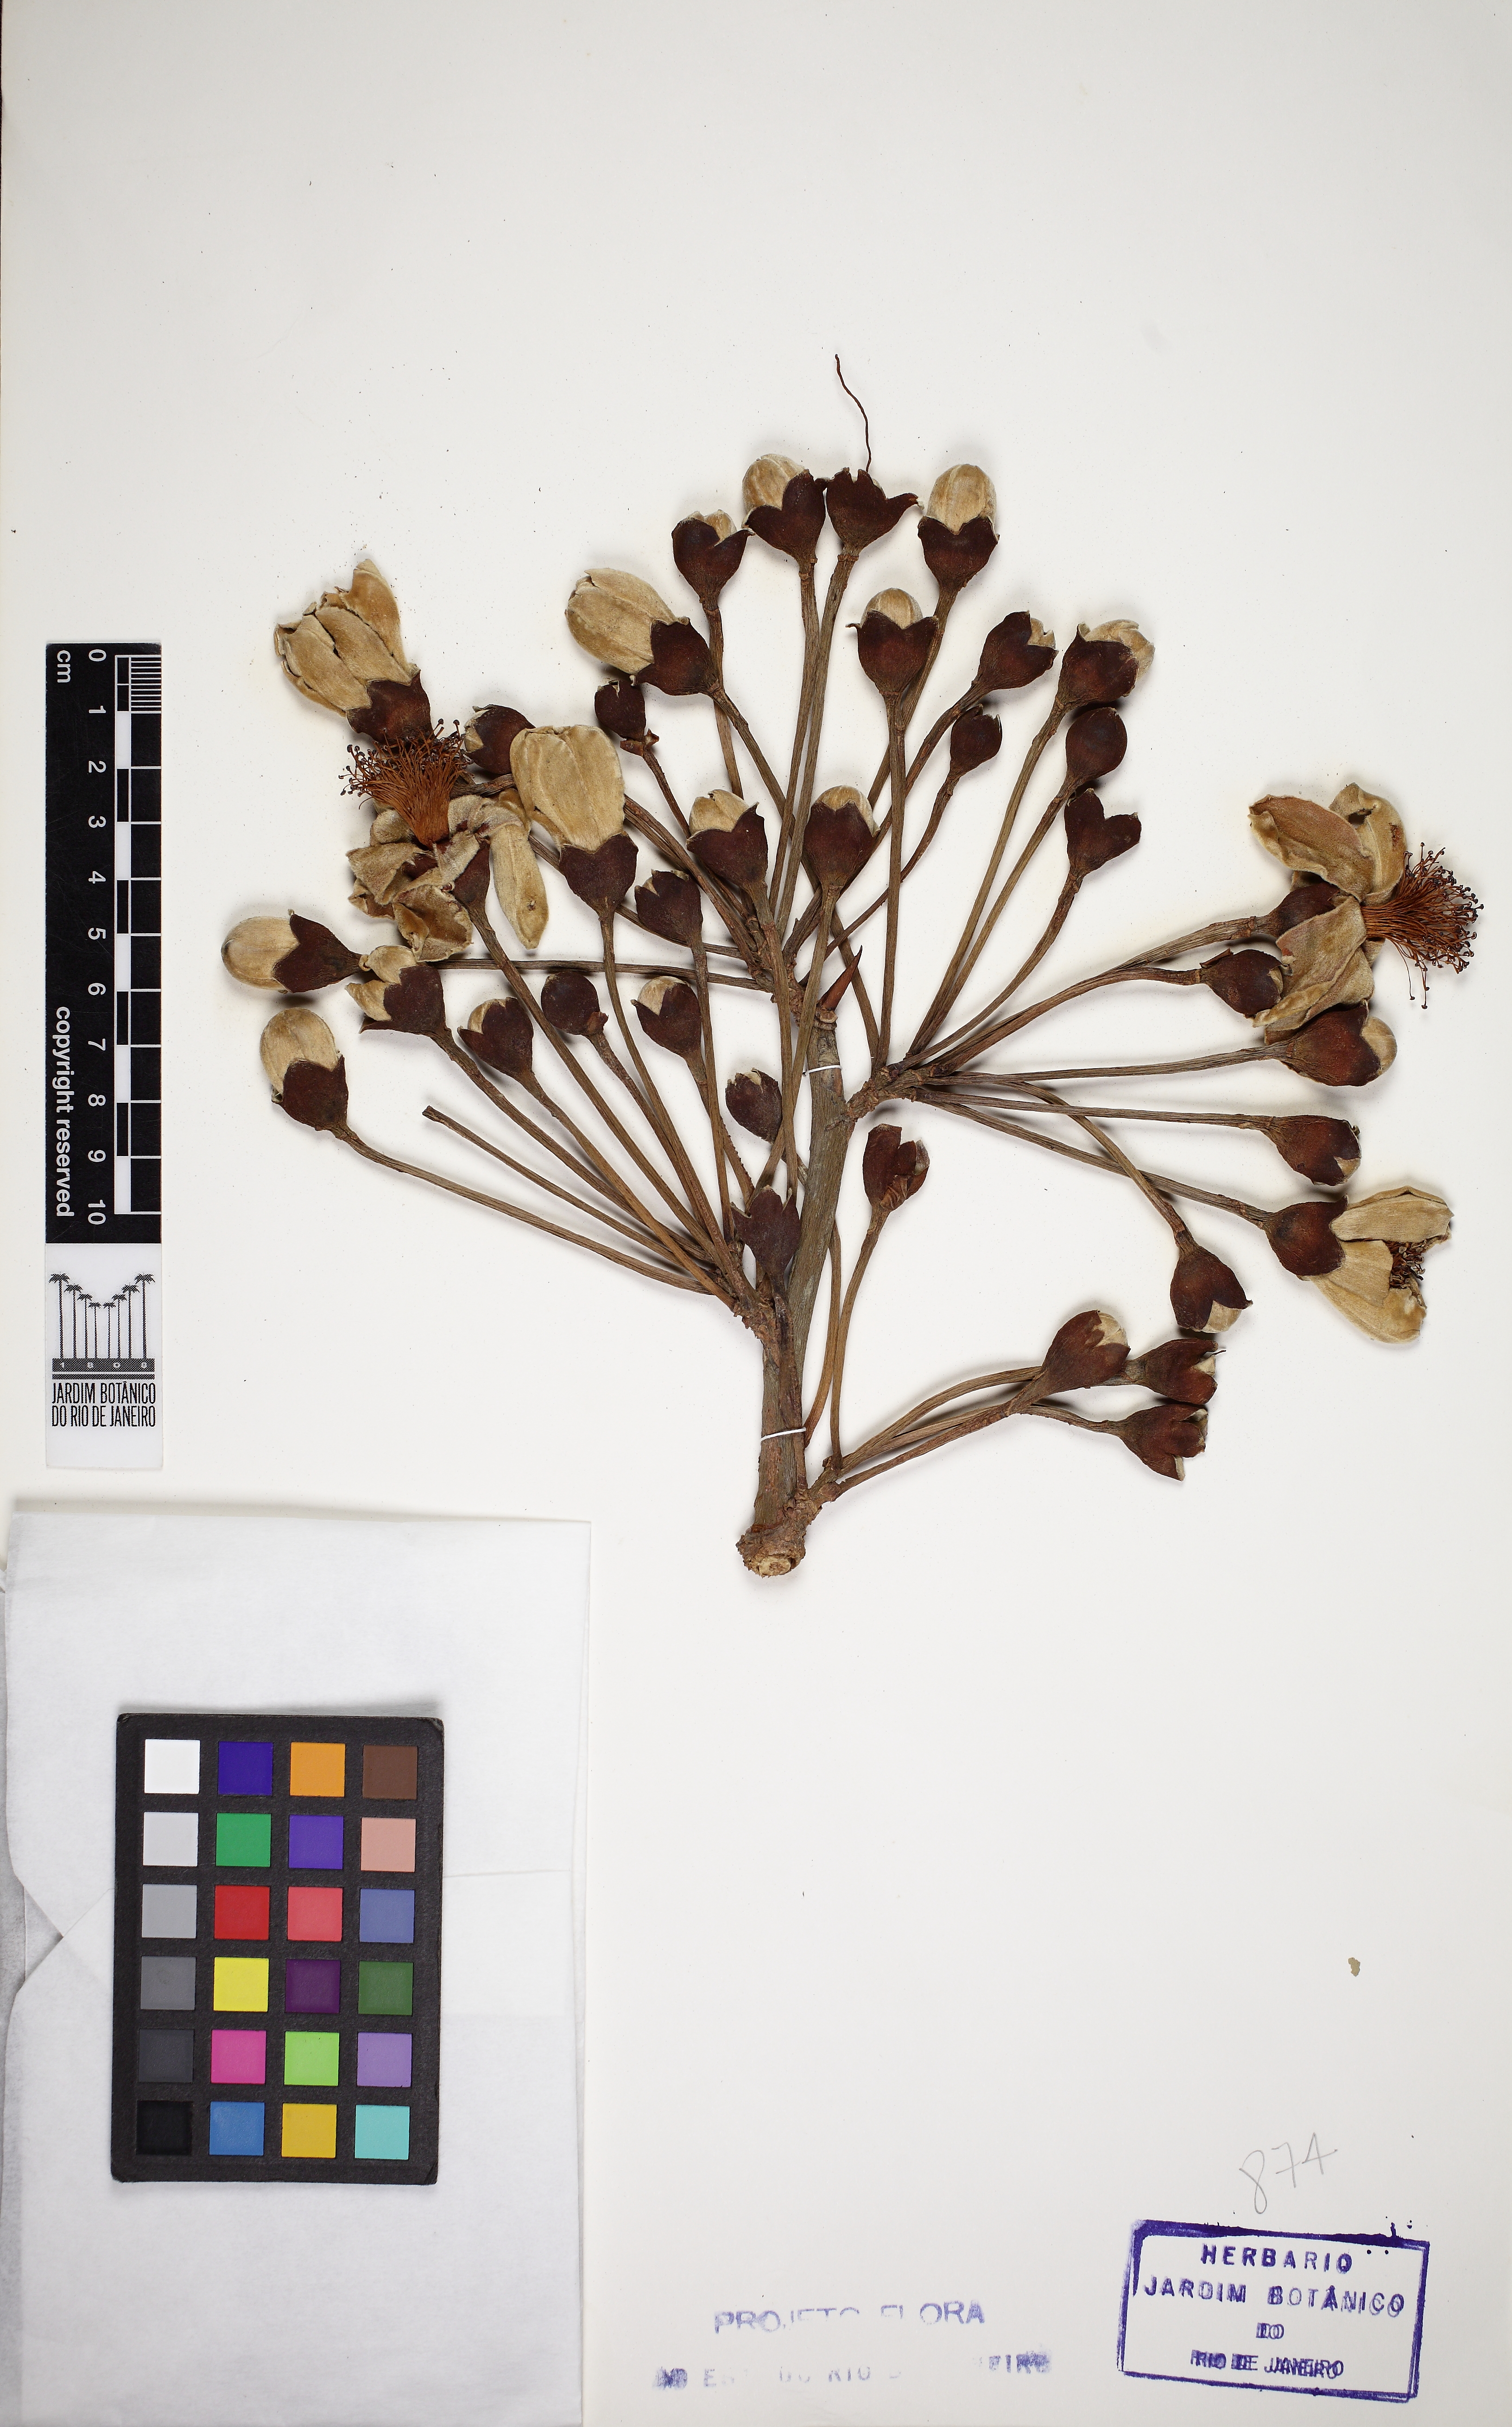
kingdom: Plantae
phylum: Tracheophyta
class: Magnoliopsida
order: Malvales
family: Malvaceae
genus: Eriotheca
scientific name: Eriotheca pentaphylla
